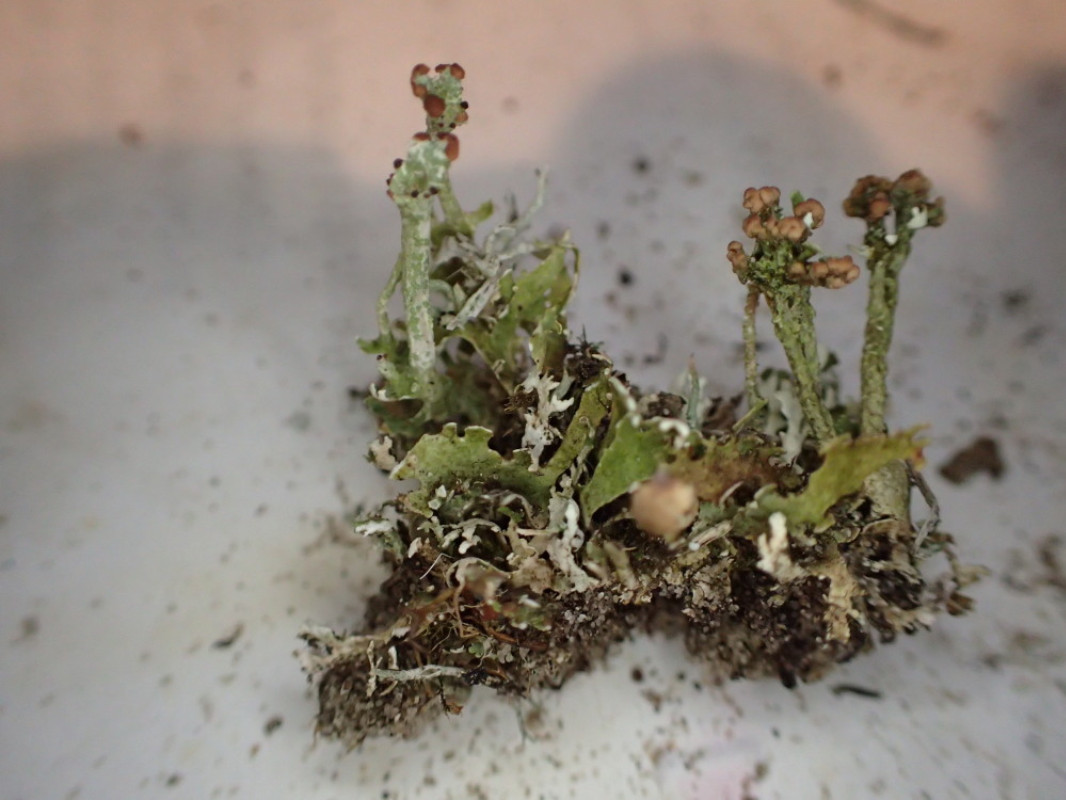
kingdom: Fungi
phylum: Ascomycota
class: Lecanoromycetes
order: Lecanorales
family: Cladoniaceae
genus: Cladonia
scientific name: Cladonia foliacea
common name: fliget bægerlav
